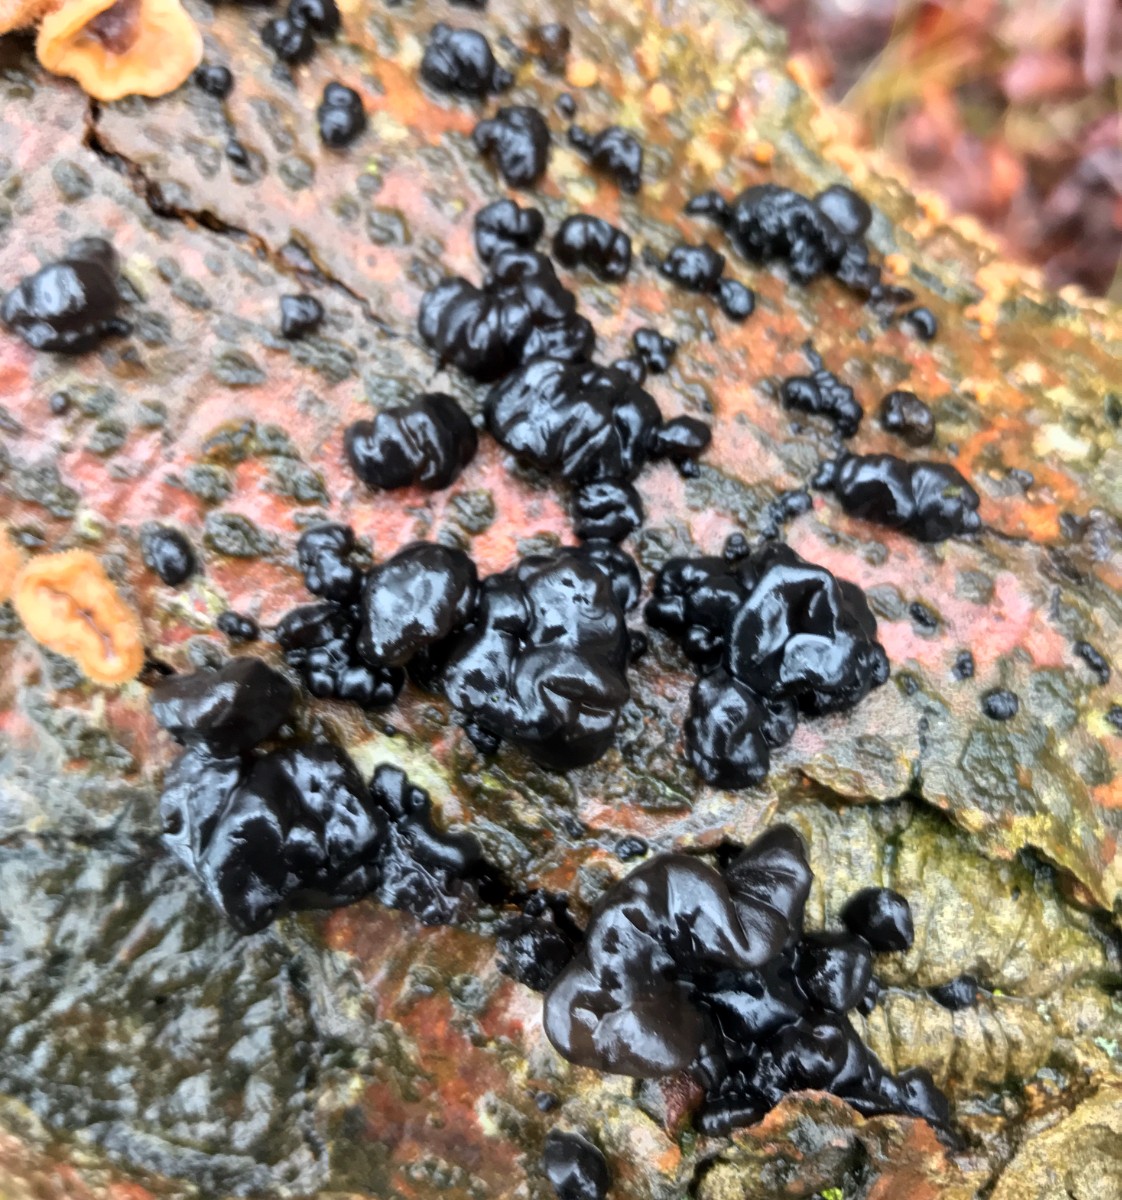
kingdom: Fungi
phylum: Basidiomycota
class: Agaricomycetes
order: Auriculariales
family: Auriculariaceae
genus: Exidia
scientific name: Exidia nigricans
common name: almindelig bævretop
